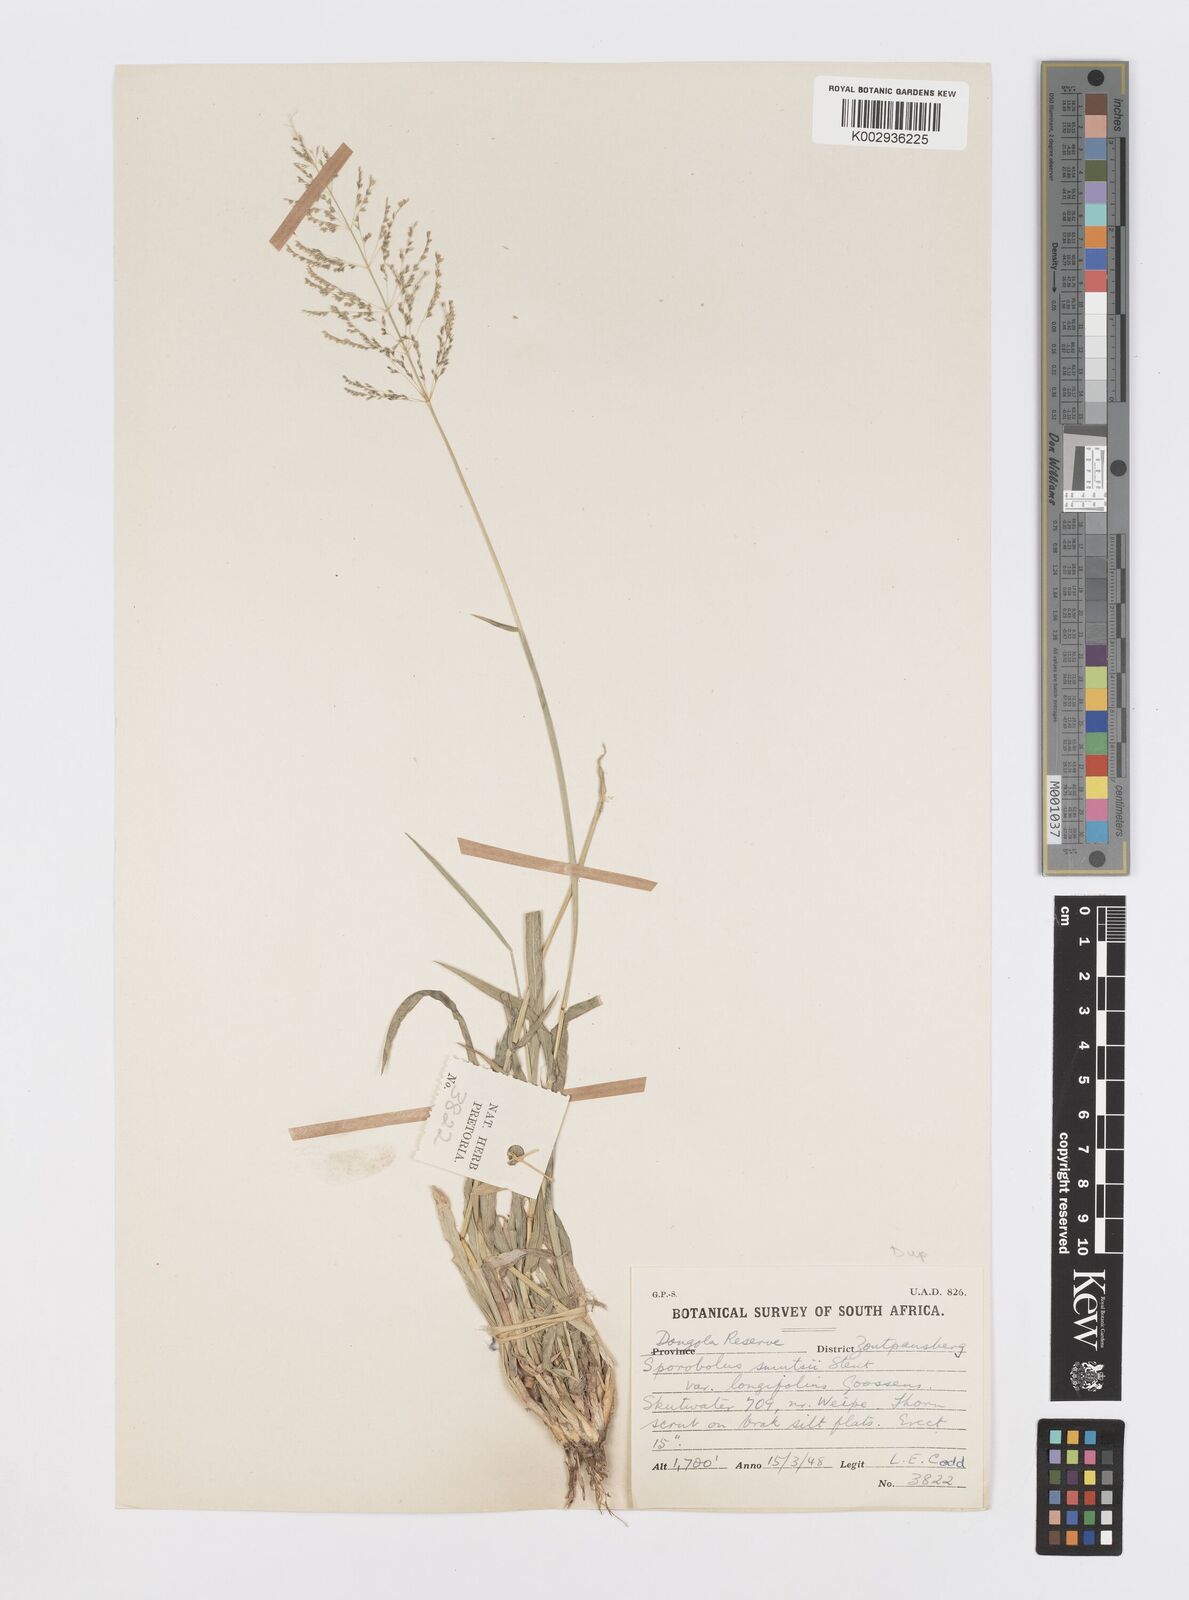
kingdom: Plantae
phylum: Tracheophyta
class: Liliopsida
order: Poales
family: Poaceae
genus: Sporobolus
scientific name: Sporobolus ioclados
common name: Pan dropseed
